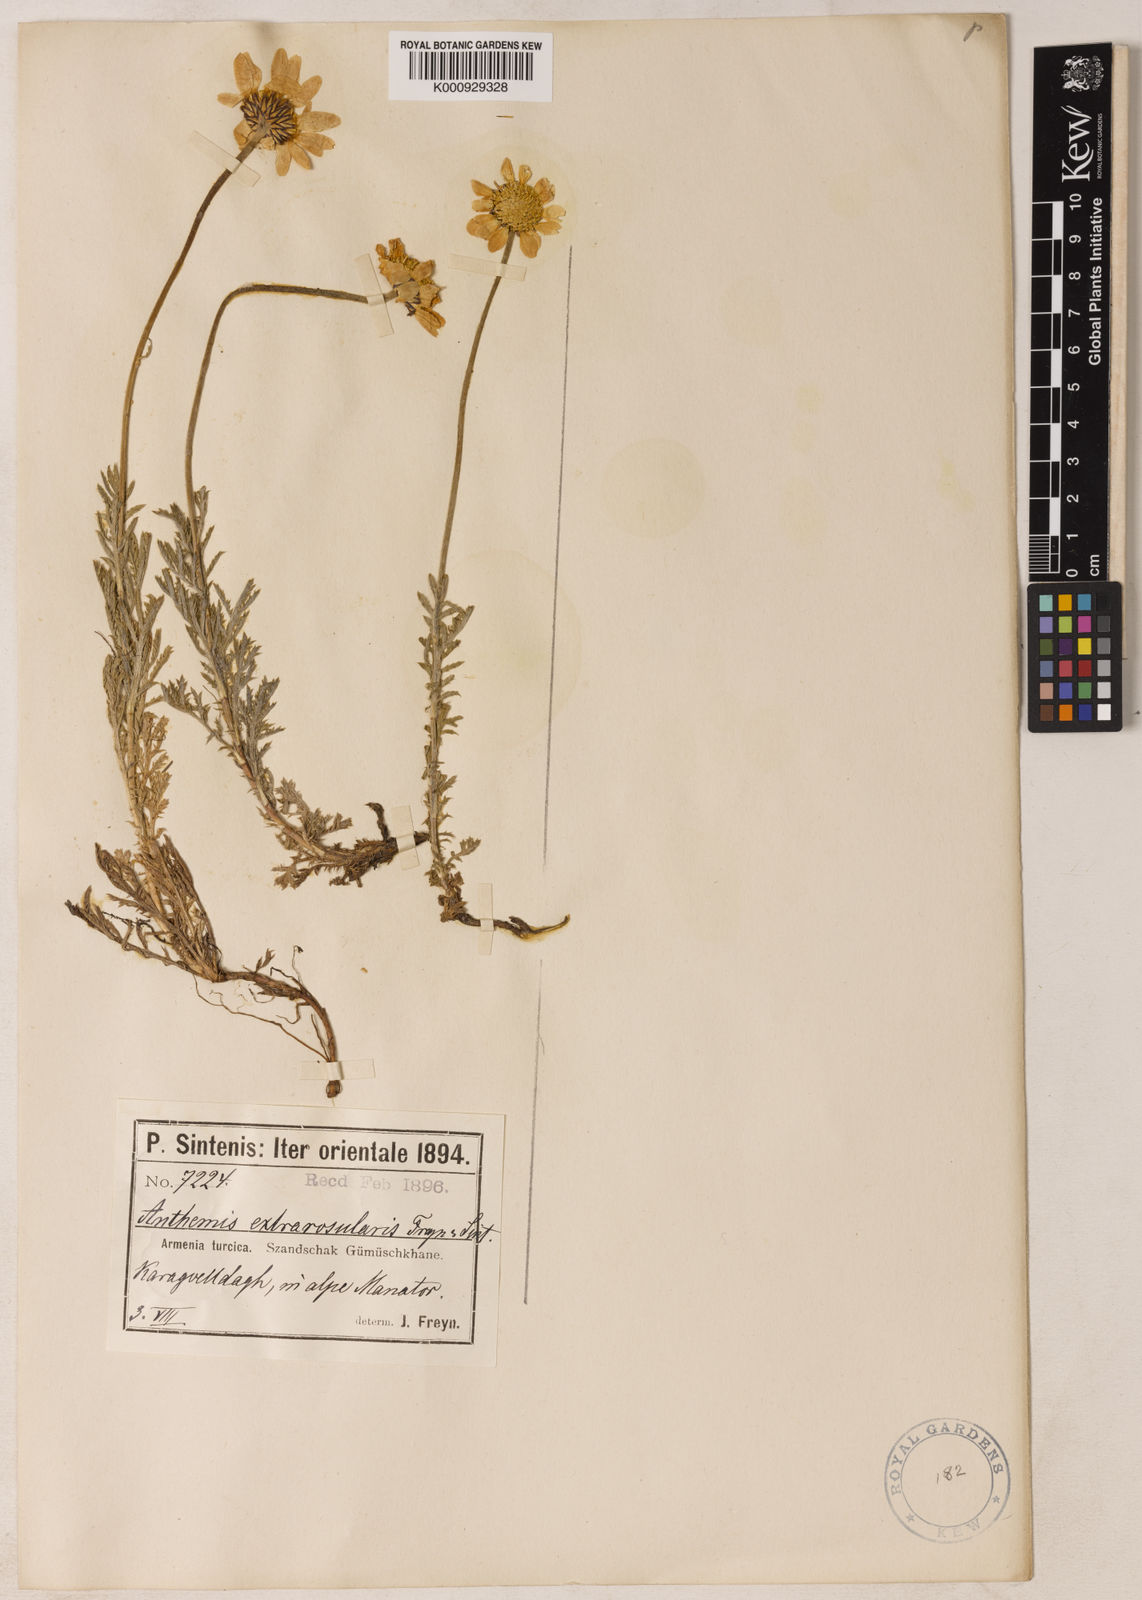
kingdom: Plantae
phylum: Tracheophyta
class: Magnoliopsida
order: Asterales
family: Asteraceae
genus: Cota
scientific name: Cota melanoloma
